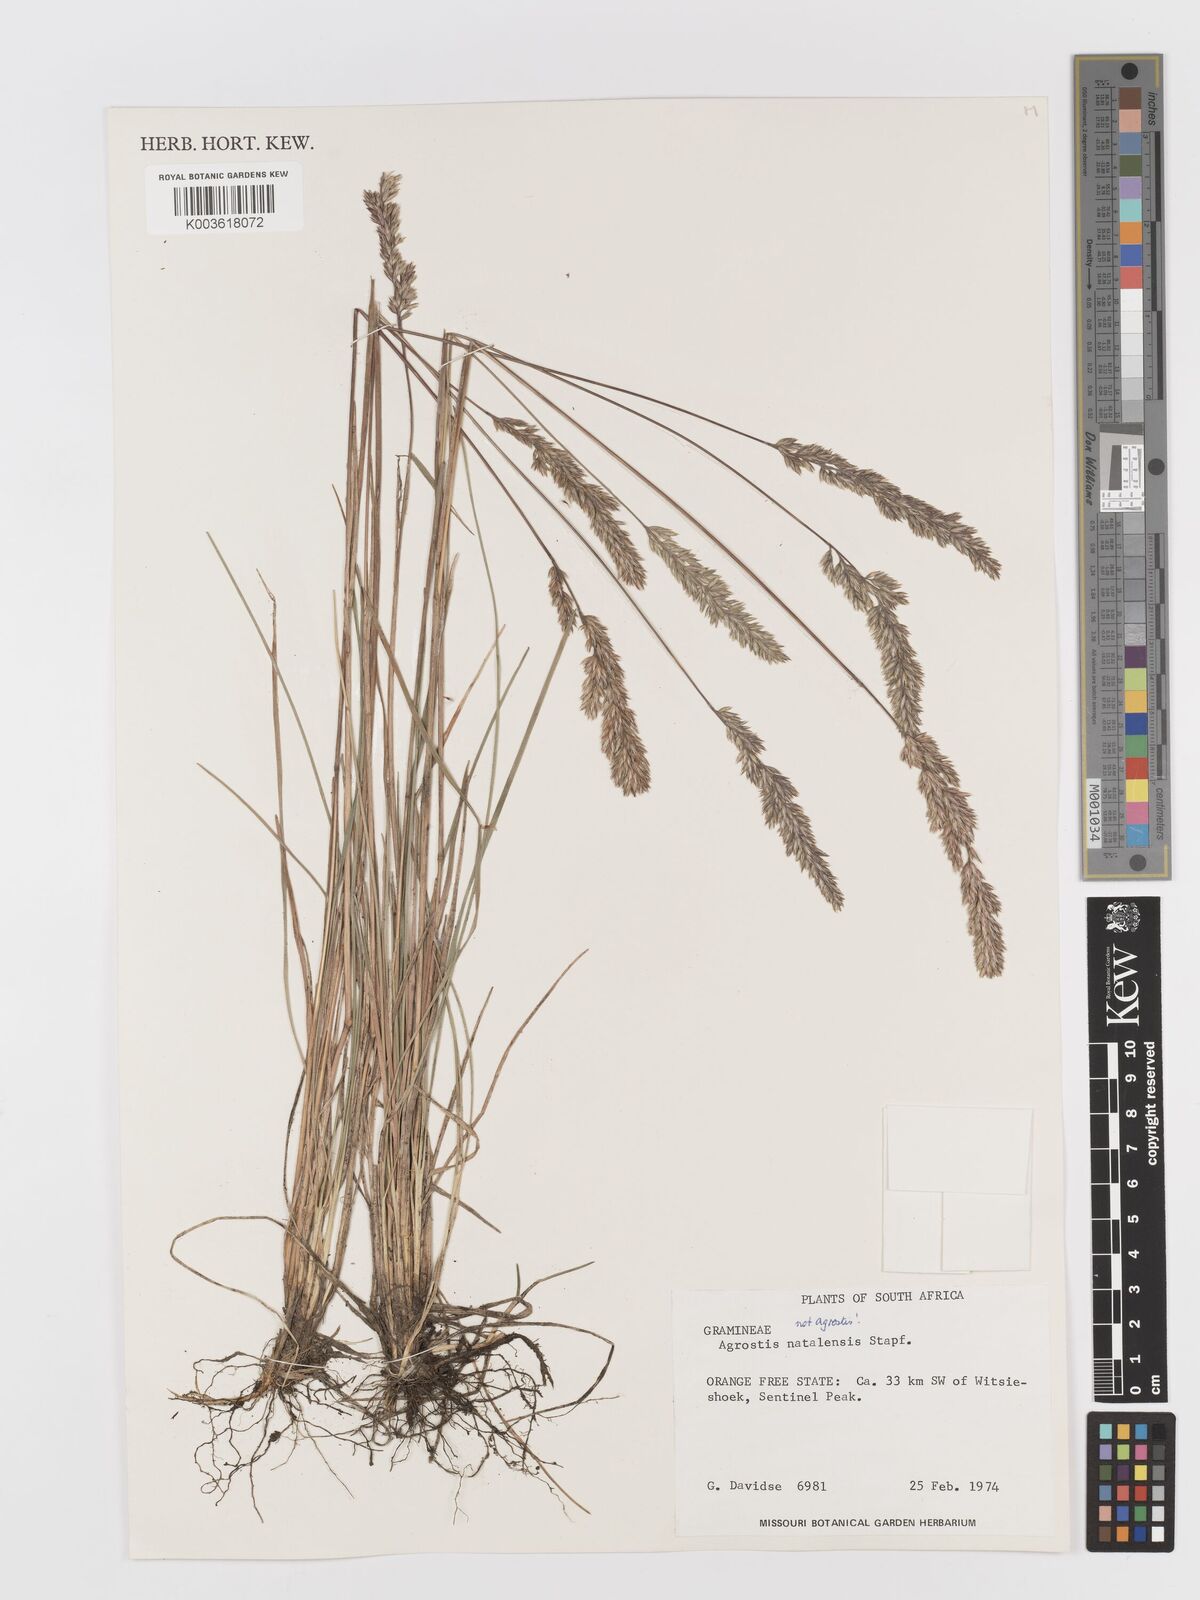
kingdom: Plantae
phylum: Tracheophyta
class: Liliopsida
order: Poales
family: Poaceae
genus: Koeleria
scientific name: Koeleria capensis
